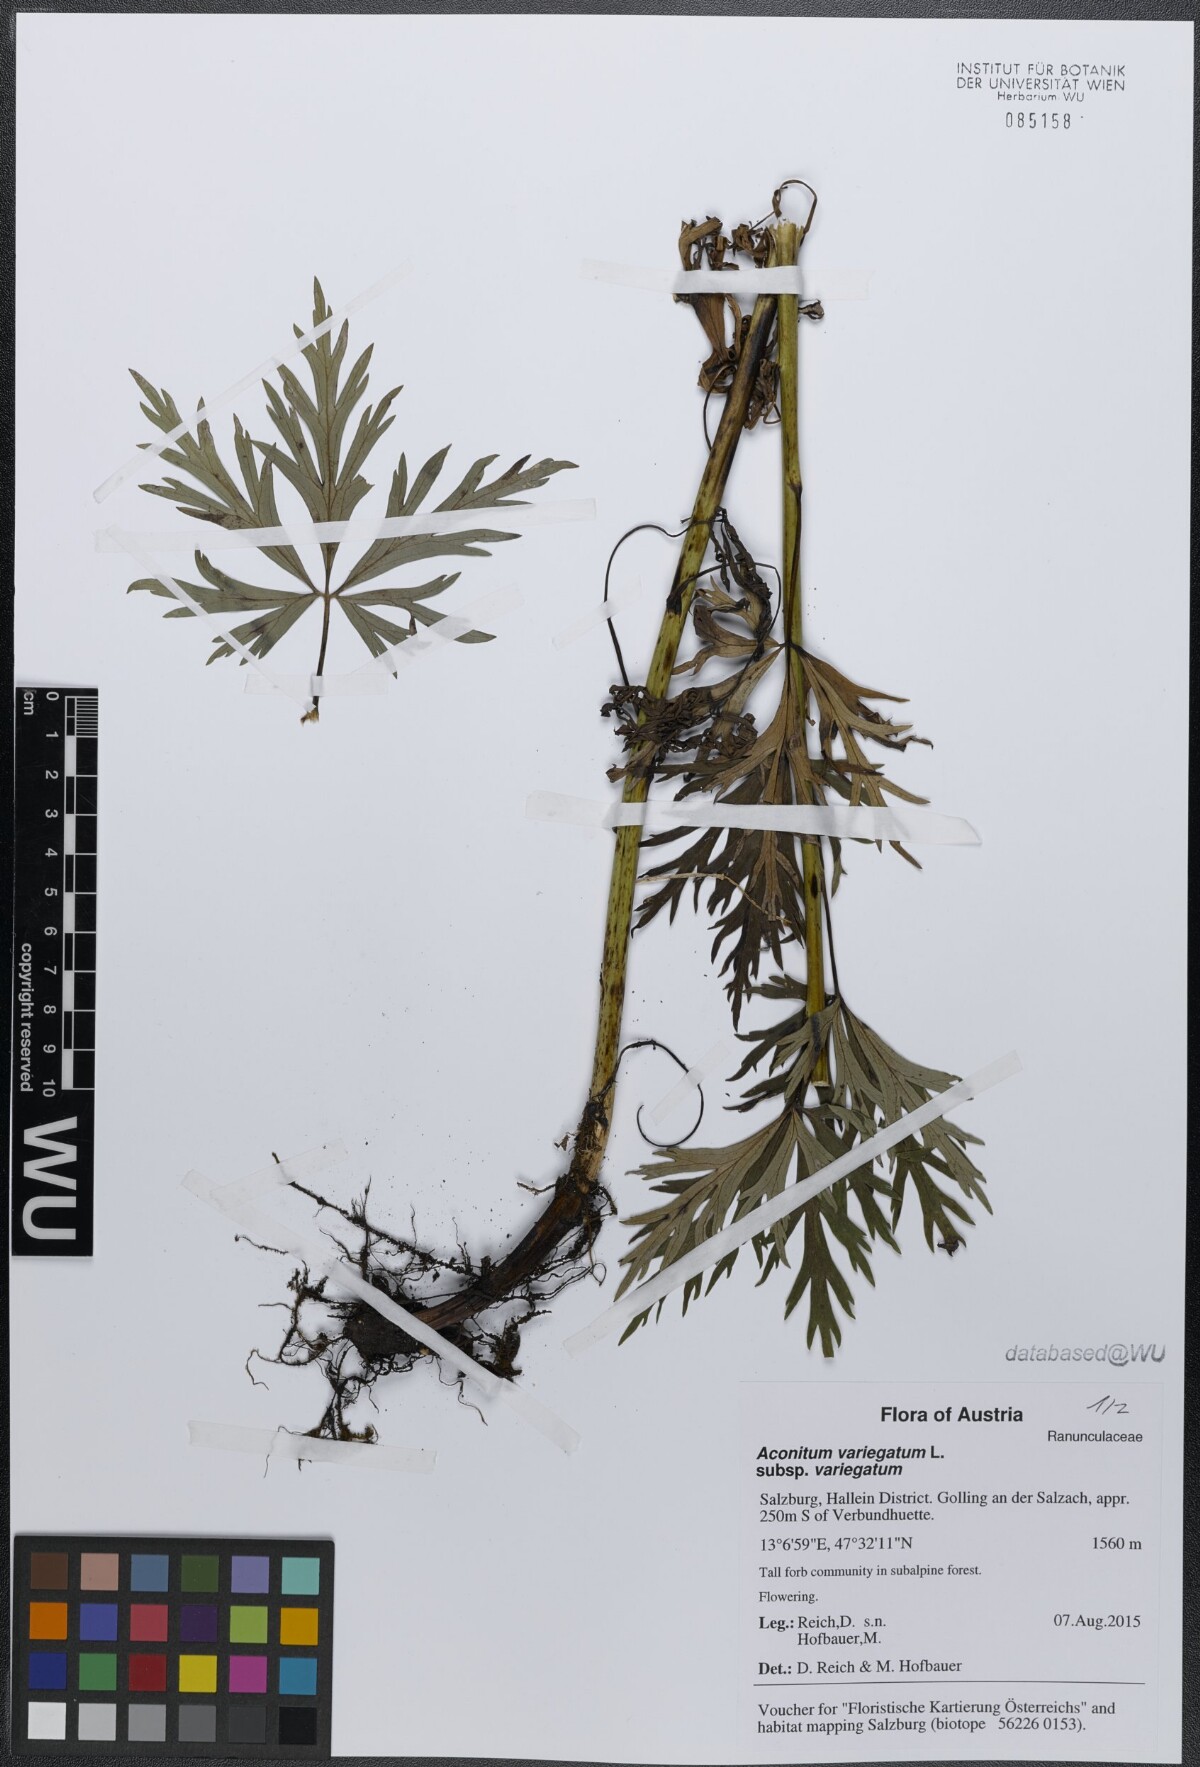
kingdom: Plantae
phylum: Tracheophyta
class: Magnoliopsida
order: Ranunculales
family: Ranunculaceae
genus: Aconitum
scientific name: Aconitum variegatum
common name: Manchurian monkshood
